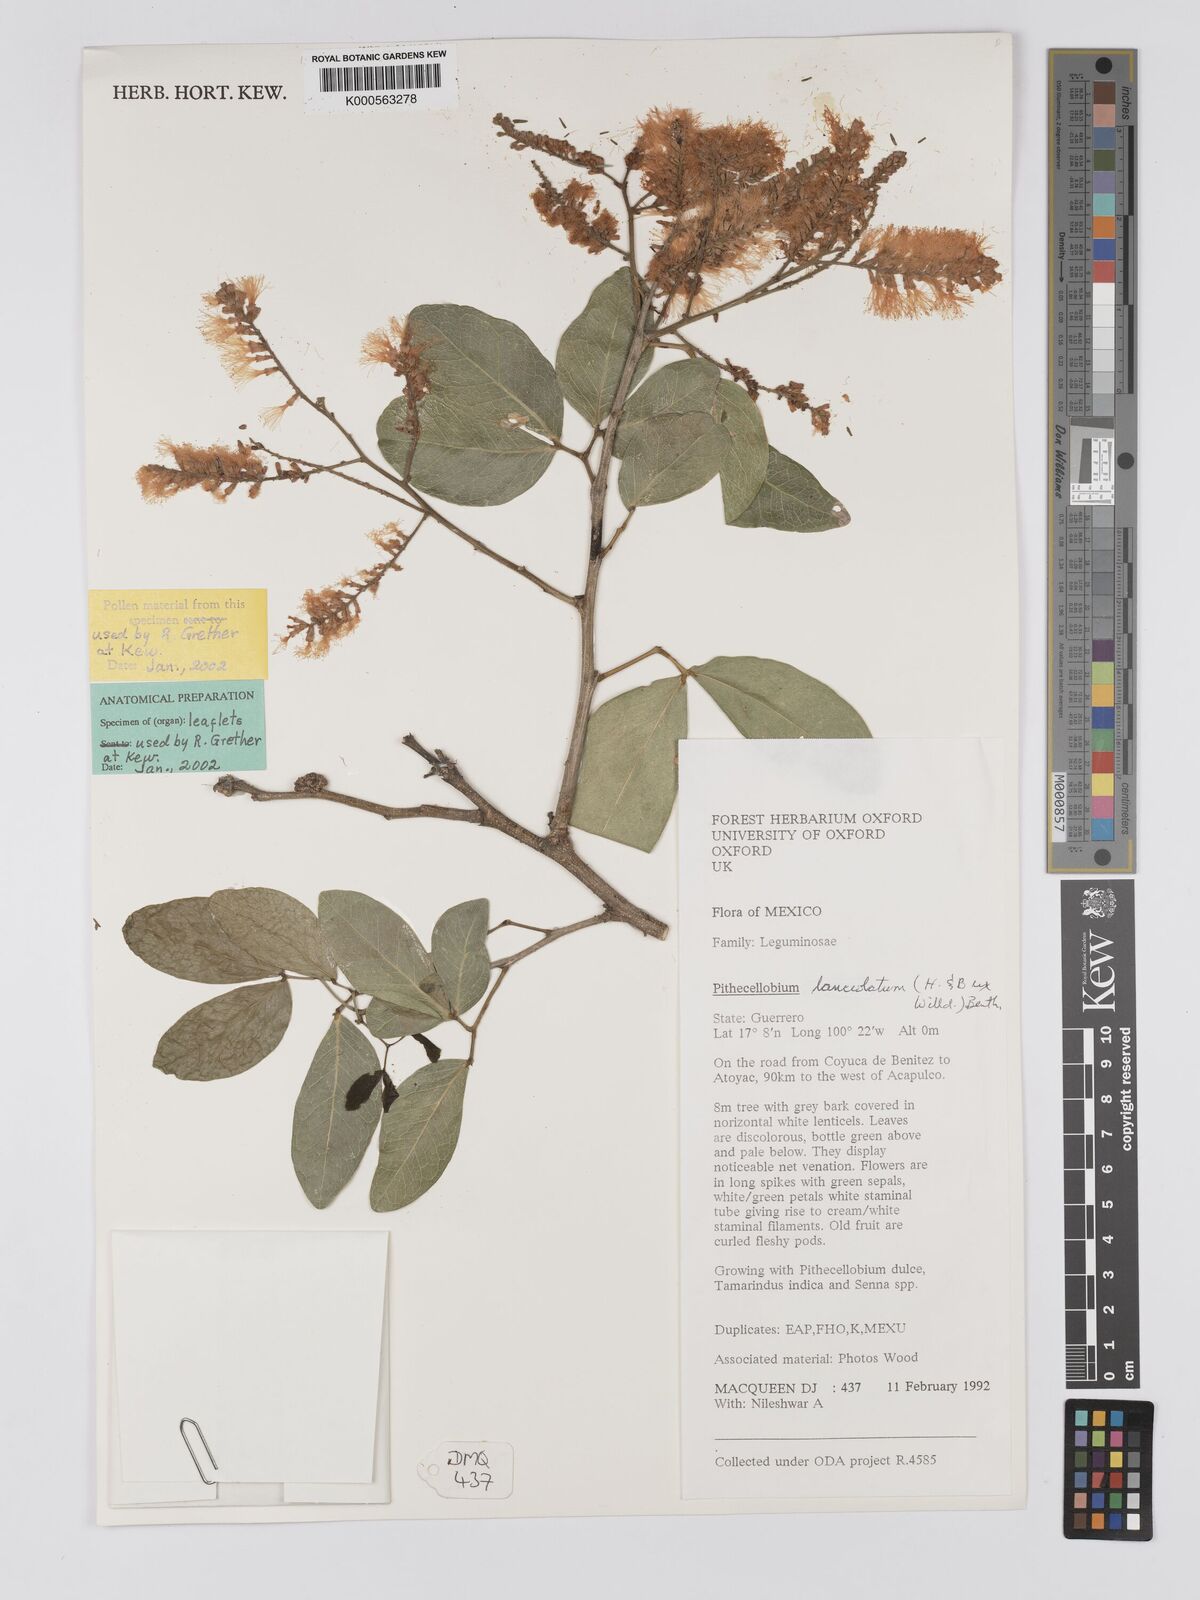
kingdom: Plantae
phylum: Tracheophyta
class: Magnoliopsida
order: Fabales
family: Fabaceae
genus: Pithecellobium
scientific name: Pithecellobium lanceolatum
